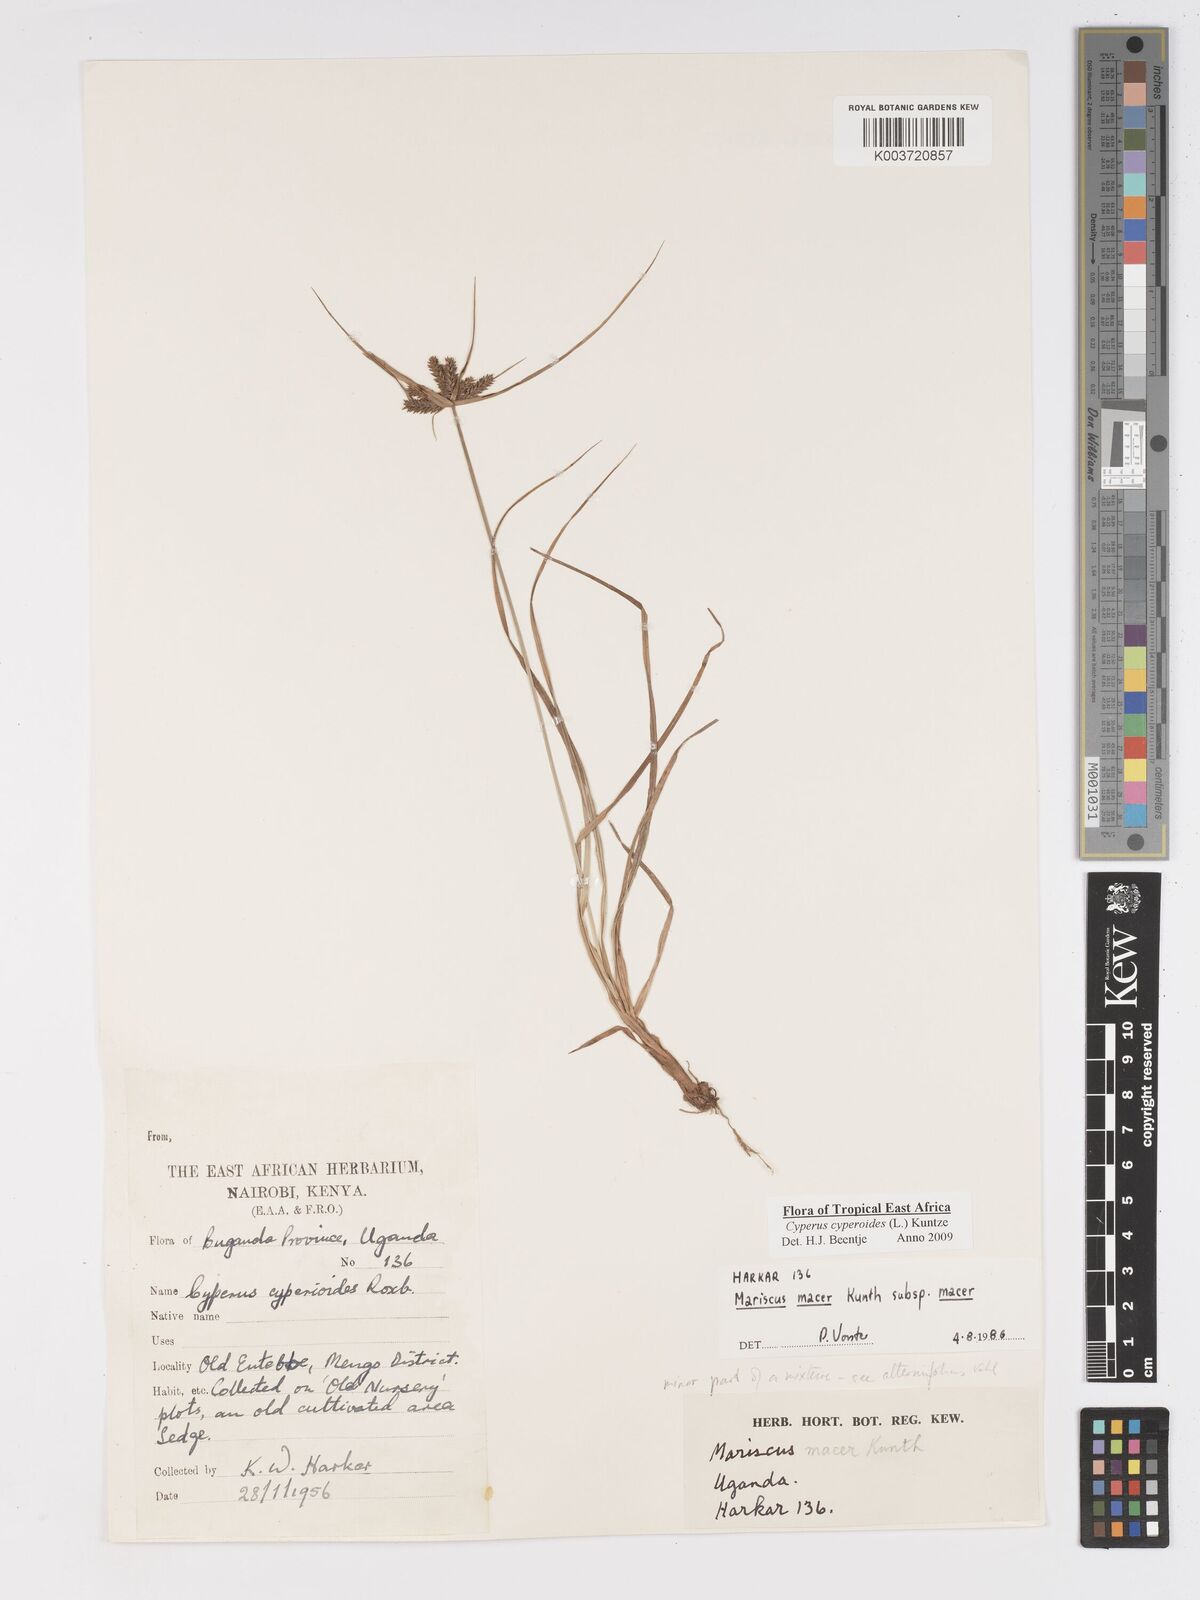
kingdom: Plantae
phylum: Tracheophyta
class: Liliopsida
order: Poales
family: Cyperaceae
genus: Cyperus
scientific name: Cyperus pseudoflavus
